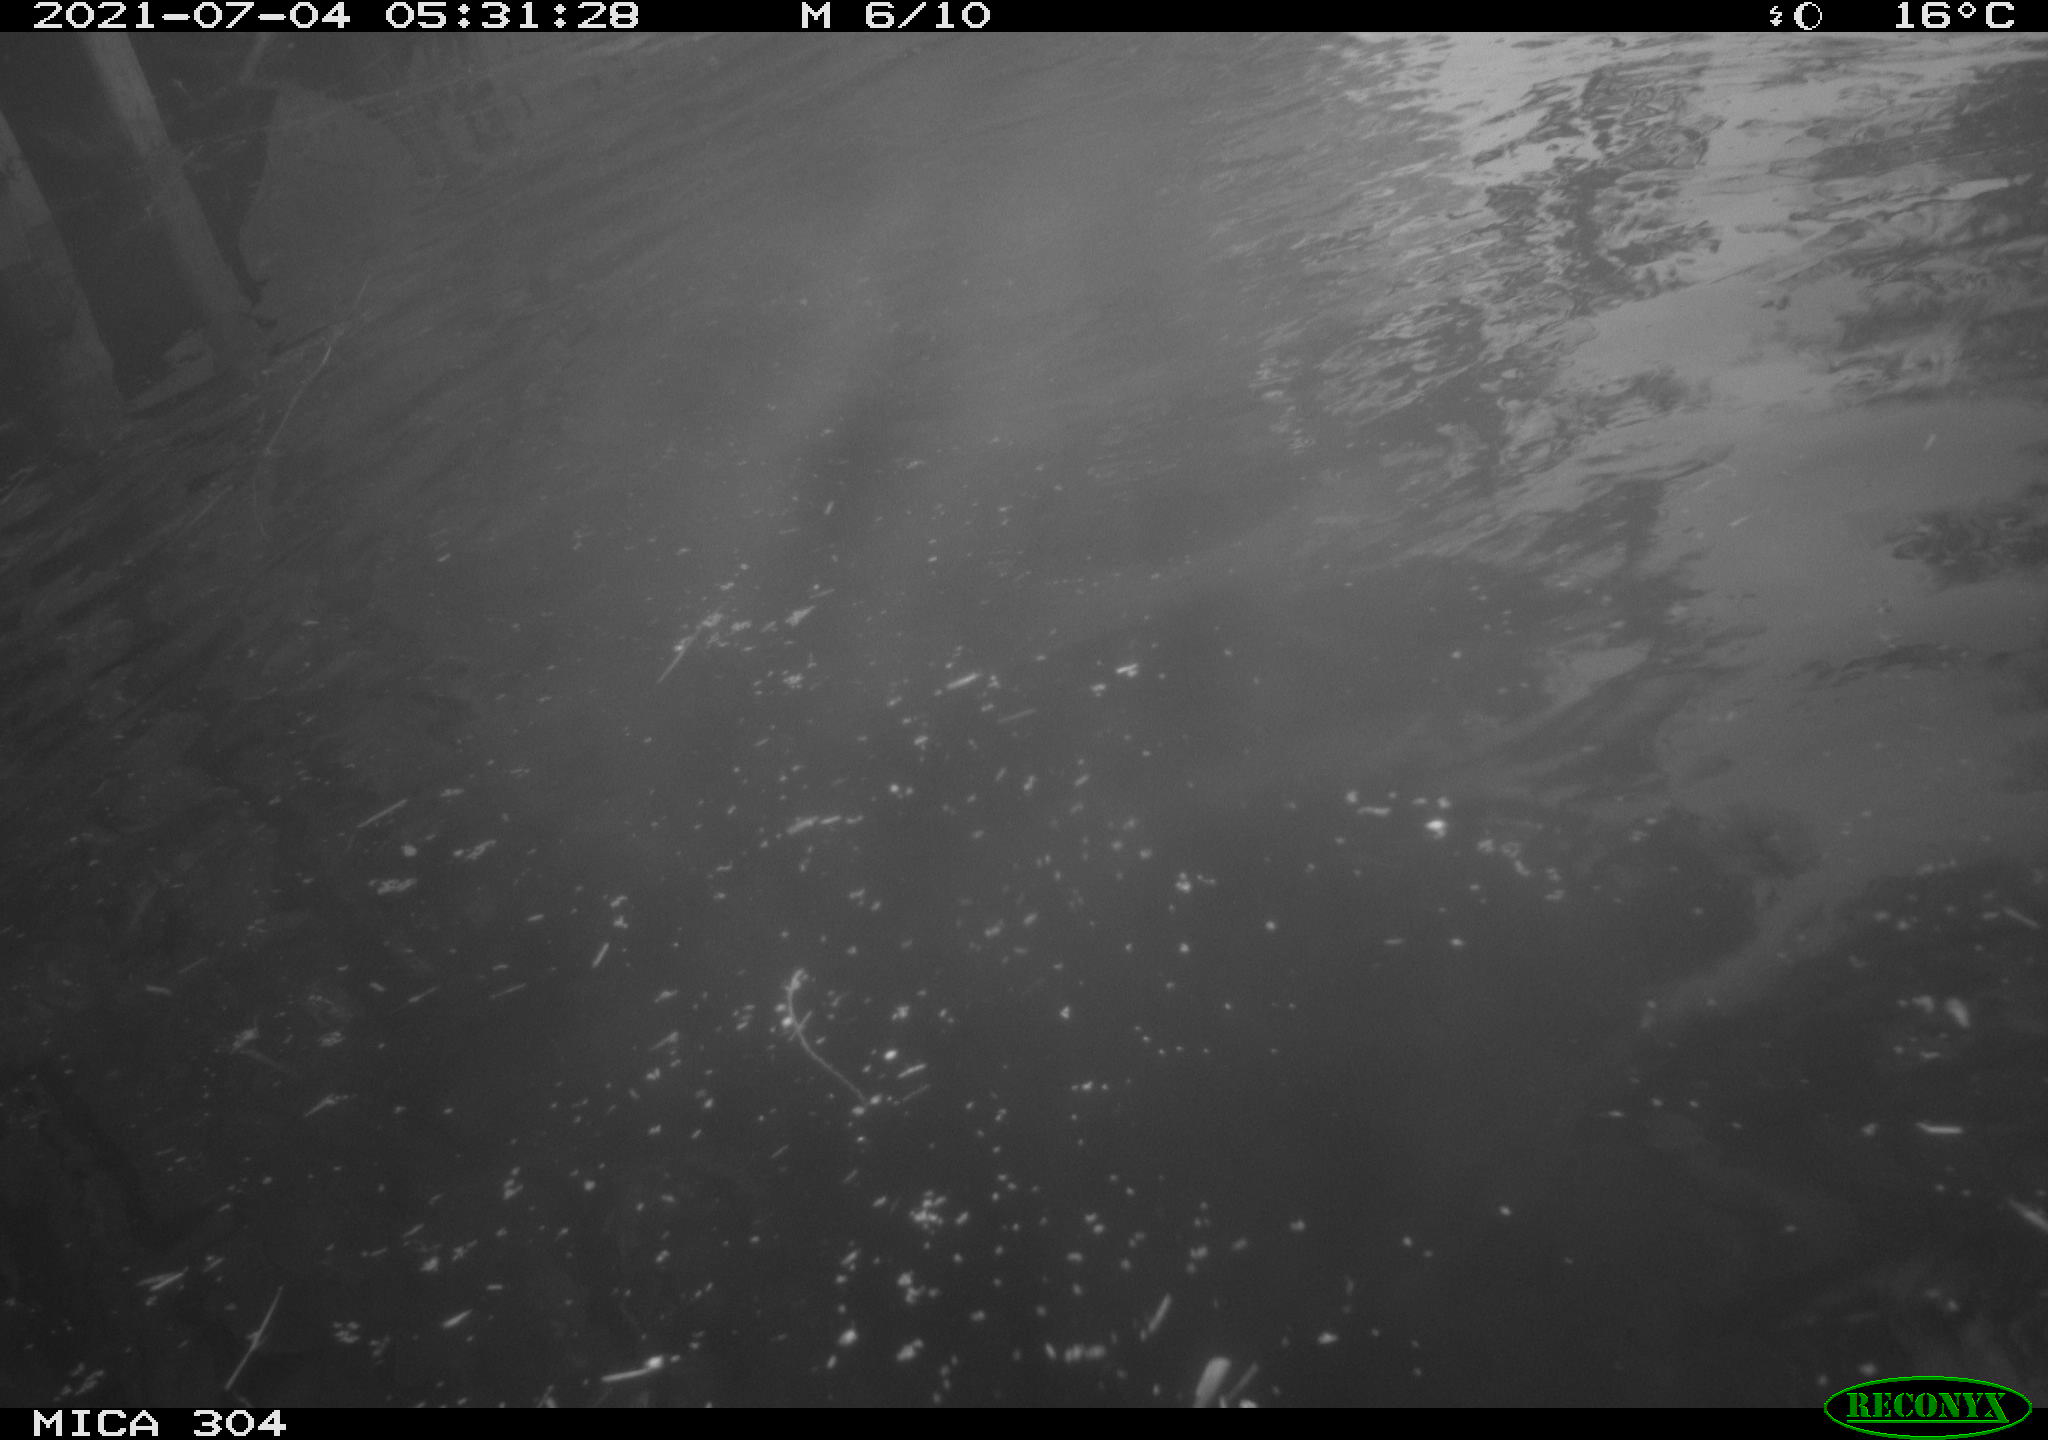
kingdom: Animalia
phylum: Chordata
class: Aves
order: Anseriformes
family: Anatidae
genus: Anas
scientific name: Anas platyrhynchos
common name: Mallard
